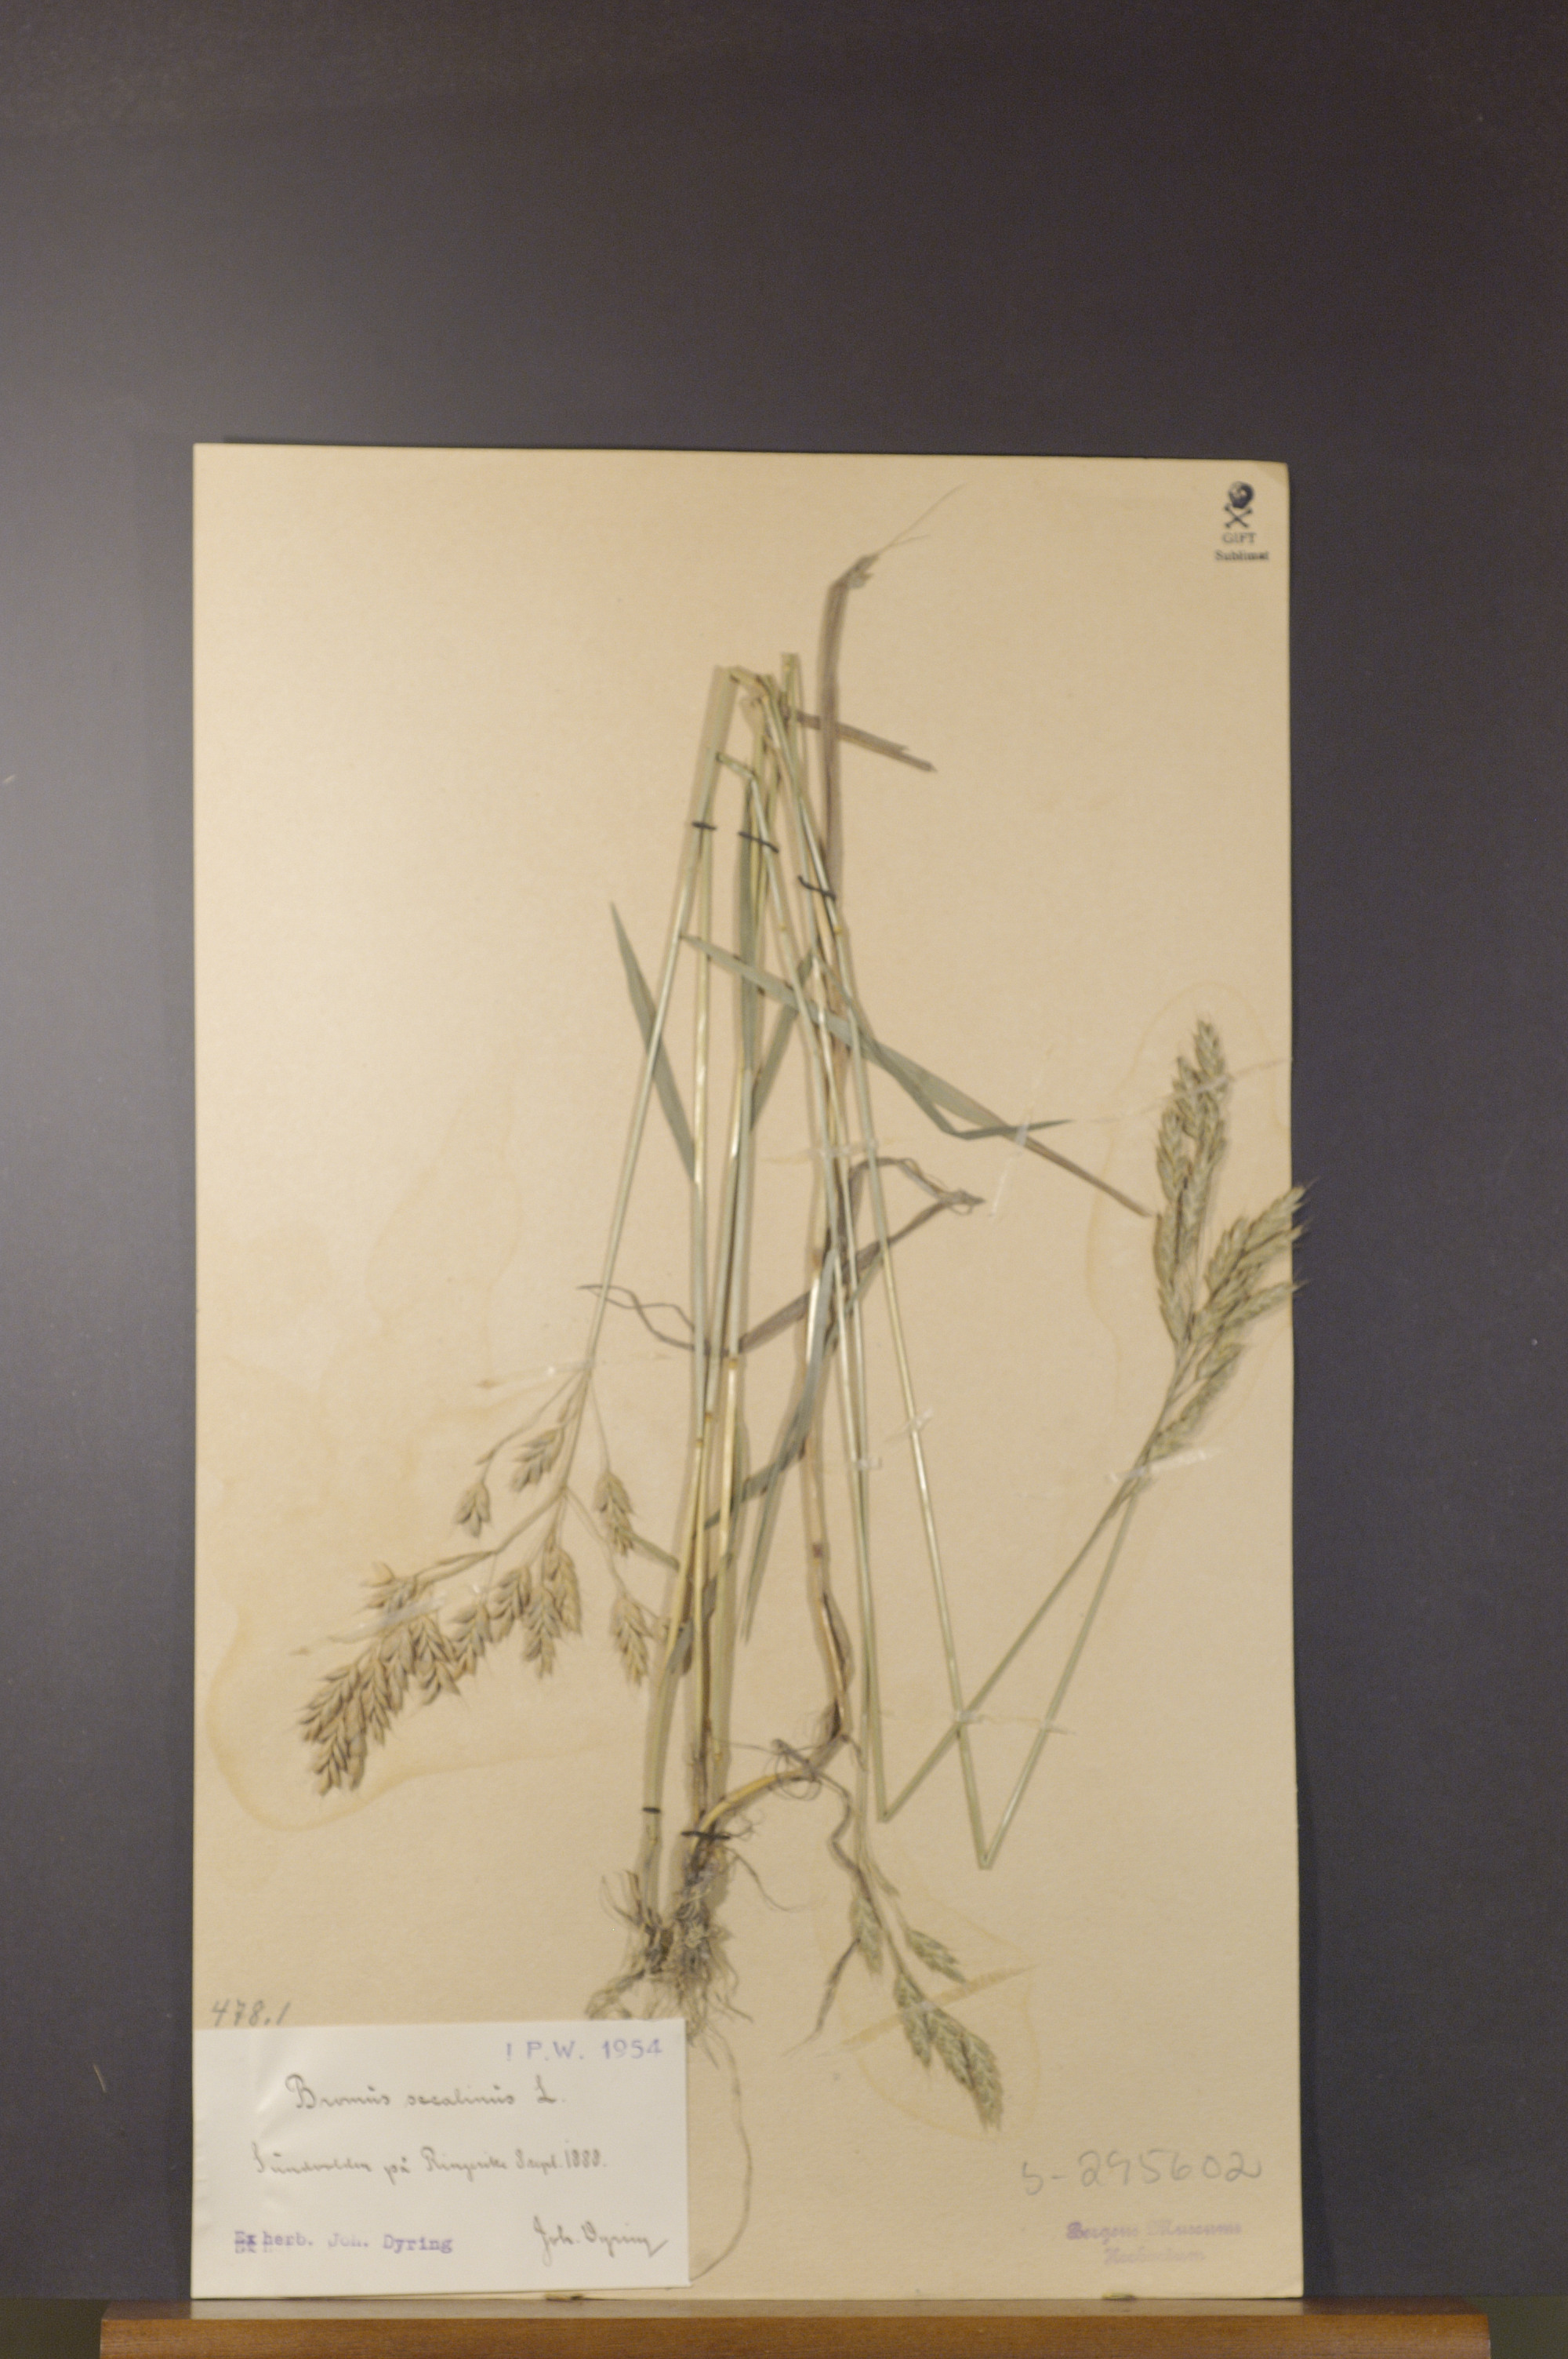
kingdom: Plantae
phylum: Tracheophyta
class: Liliopsida
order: Poales
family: Poaceae
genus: Bromus
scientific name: Bromus secalinus
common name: Rye brome
